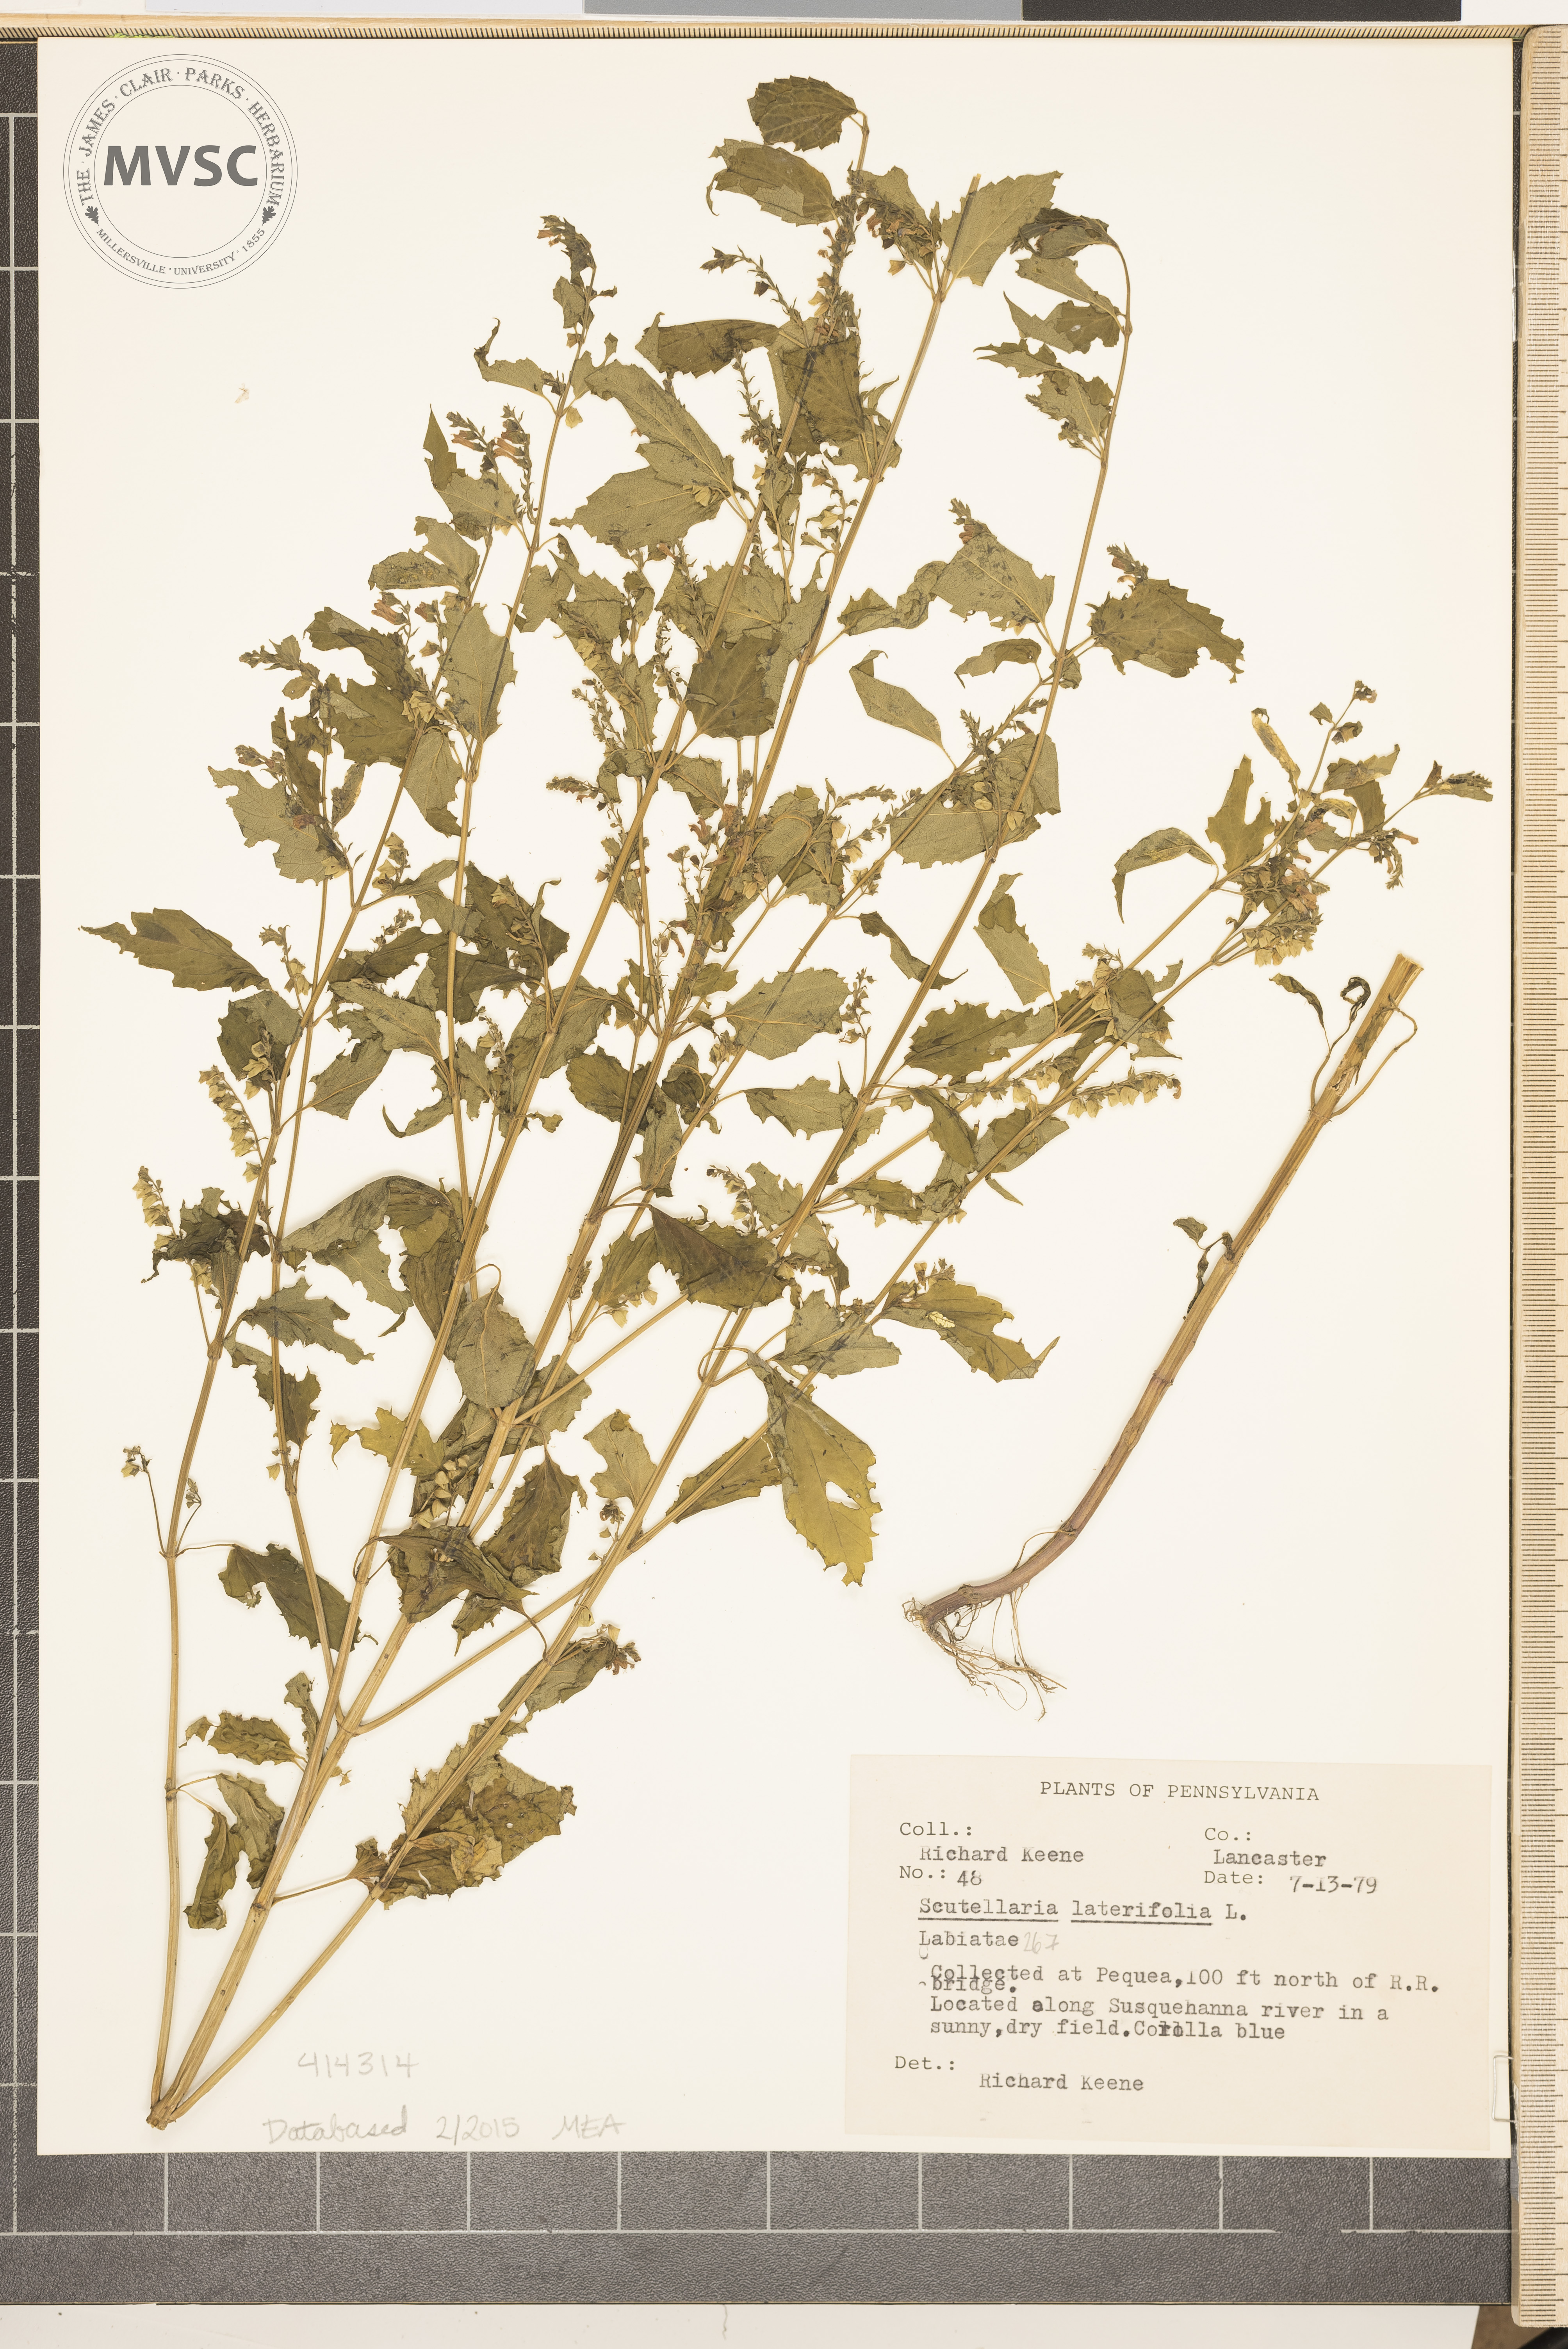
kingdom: Plantae
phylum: Tracheophyta
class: Magnoliopsida
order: Lamiales
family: Lamiaceae
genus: Scutellaria
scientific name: Scutellaria lateriflora
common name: Blue Skullcap
